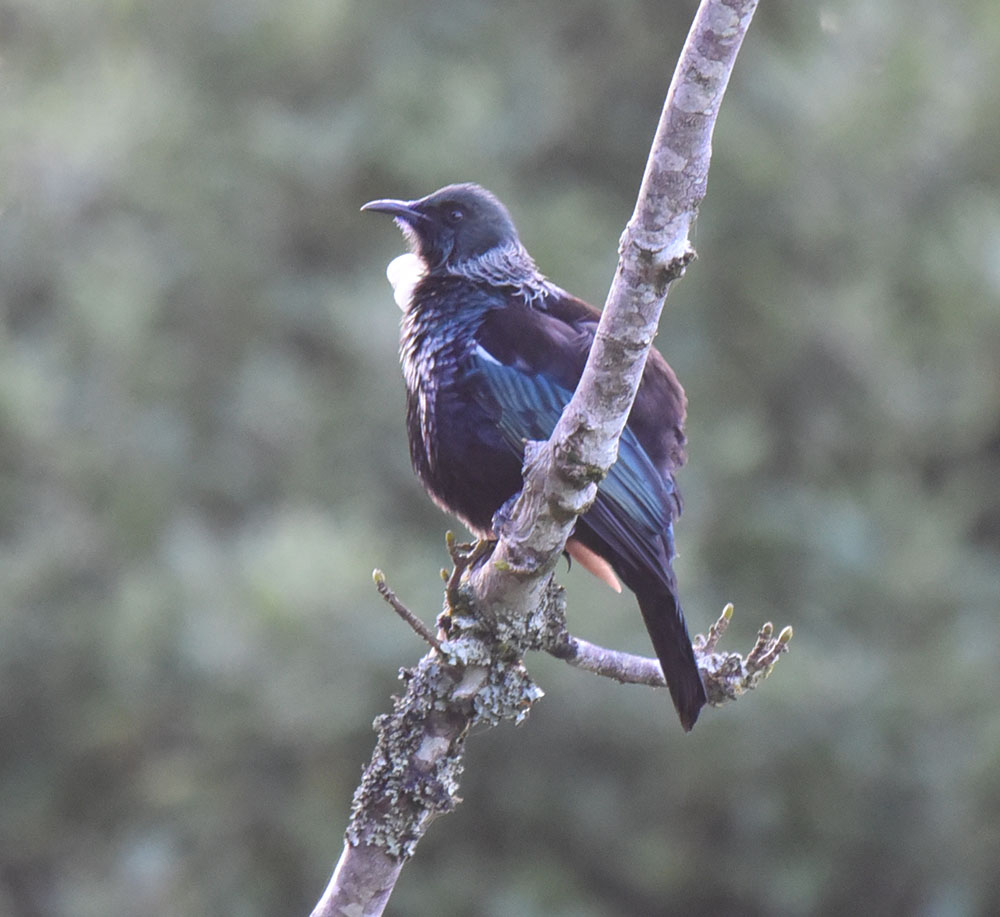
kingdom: Animalia
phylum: Chordata
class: Aves
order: Passeriformes
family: Meliphagidae
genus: Prosthemadera
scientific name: Prosthemadera novaeseelandiae
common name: Tui
